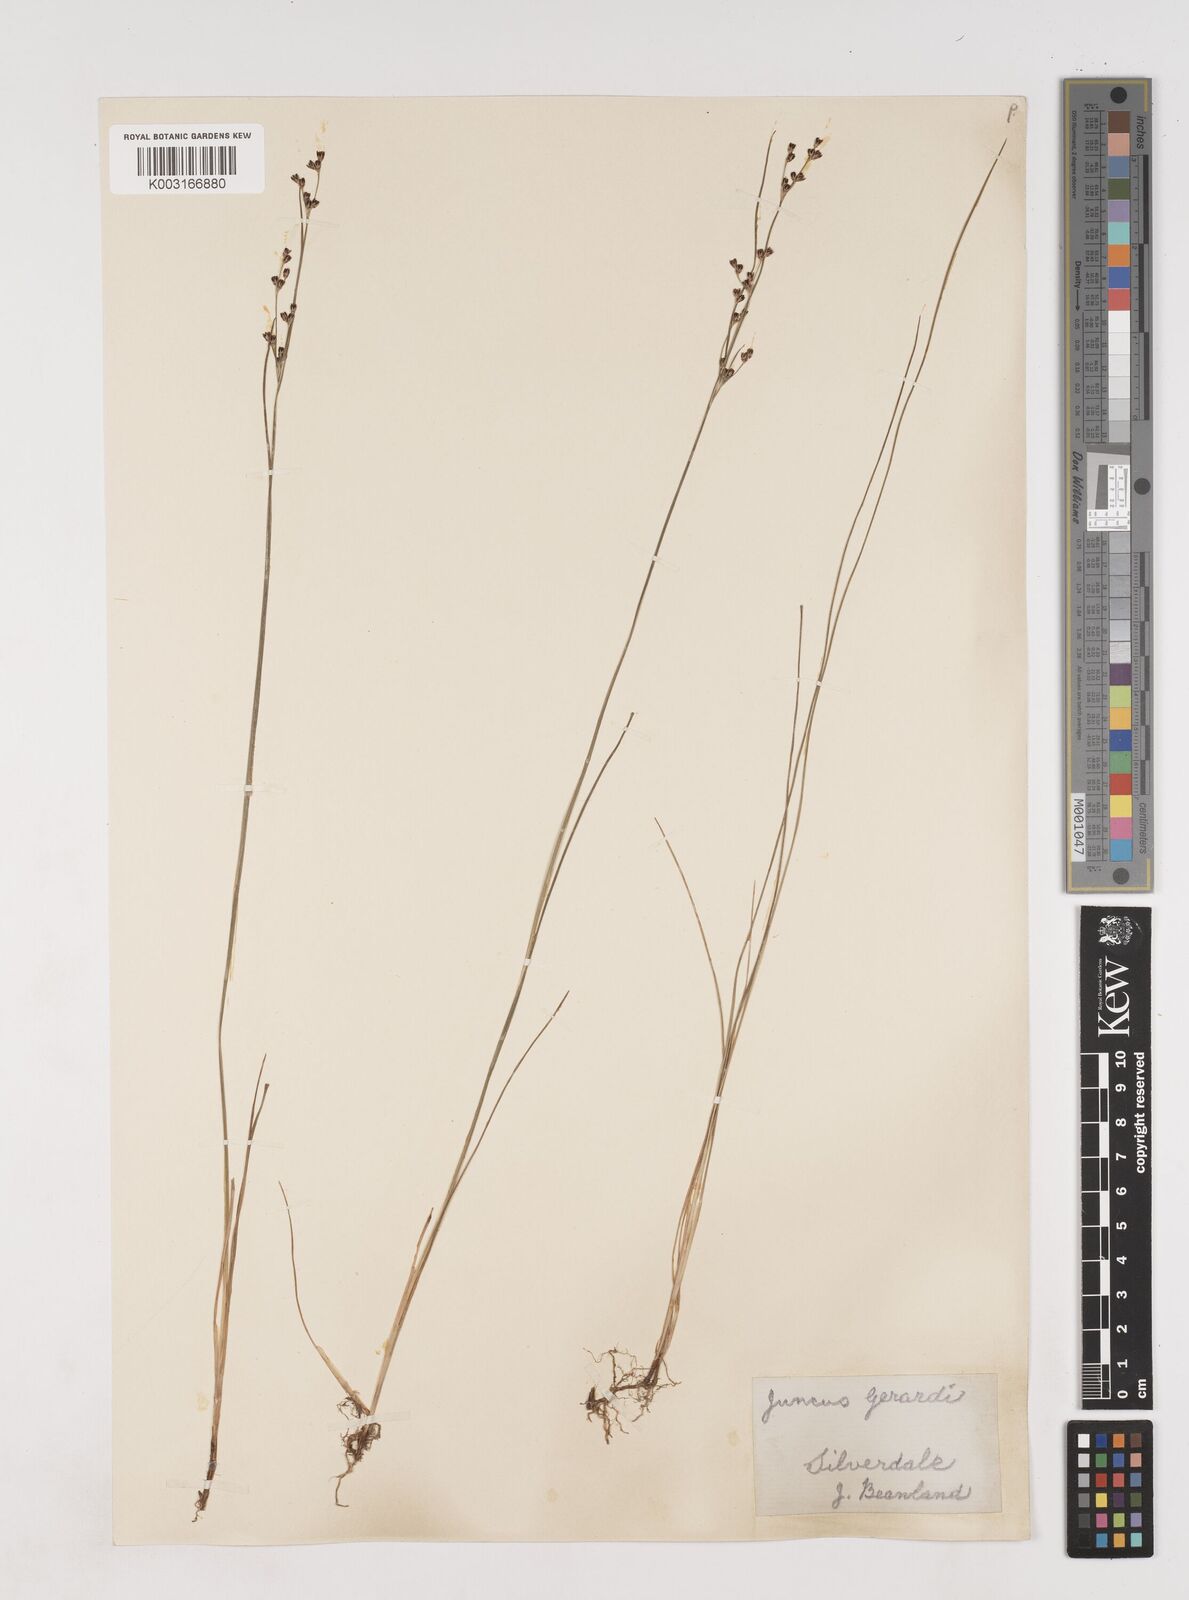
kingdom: Plantae
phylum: Tracheophyta
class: Liliopsida
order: Poales
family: Juncaceae
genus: Juncus
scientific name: Juncus gerardi
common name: Saltmarsh rush
